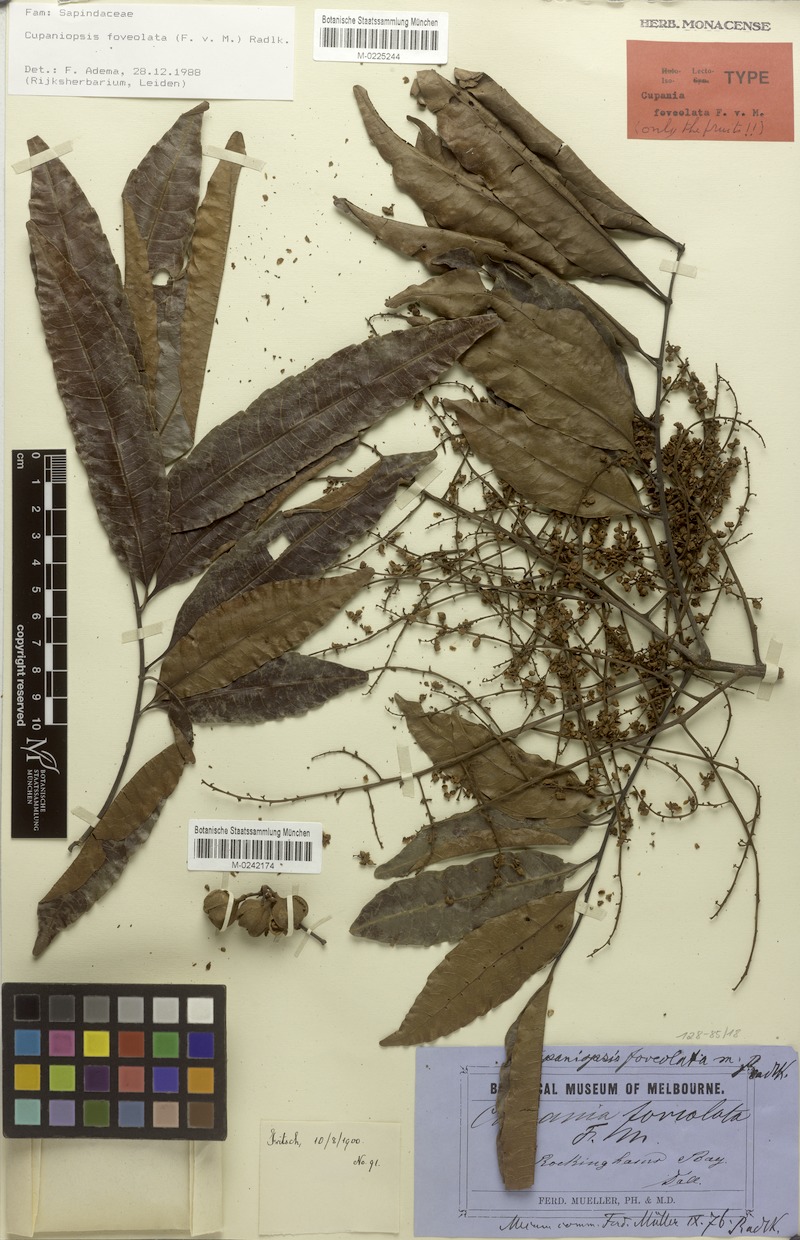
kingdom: Plantae
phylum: Tracheophyta
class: Magnoliopsida
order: Sapindales
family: Sapindaceae
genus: Cupaniopsis
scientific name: Cupaniopsis foveolata
